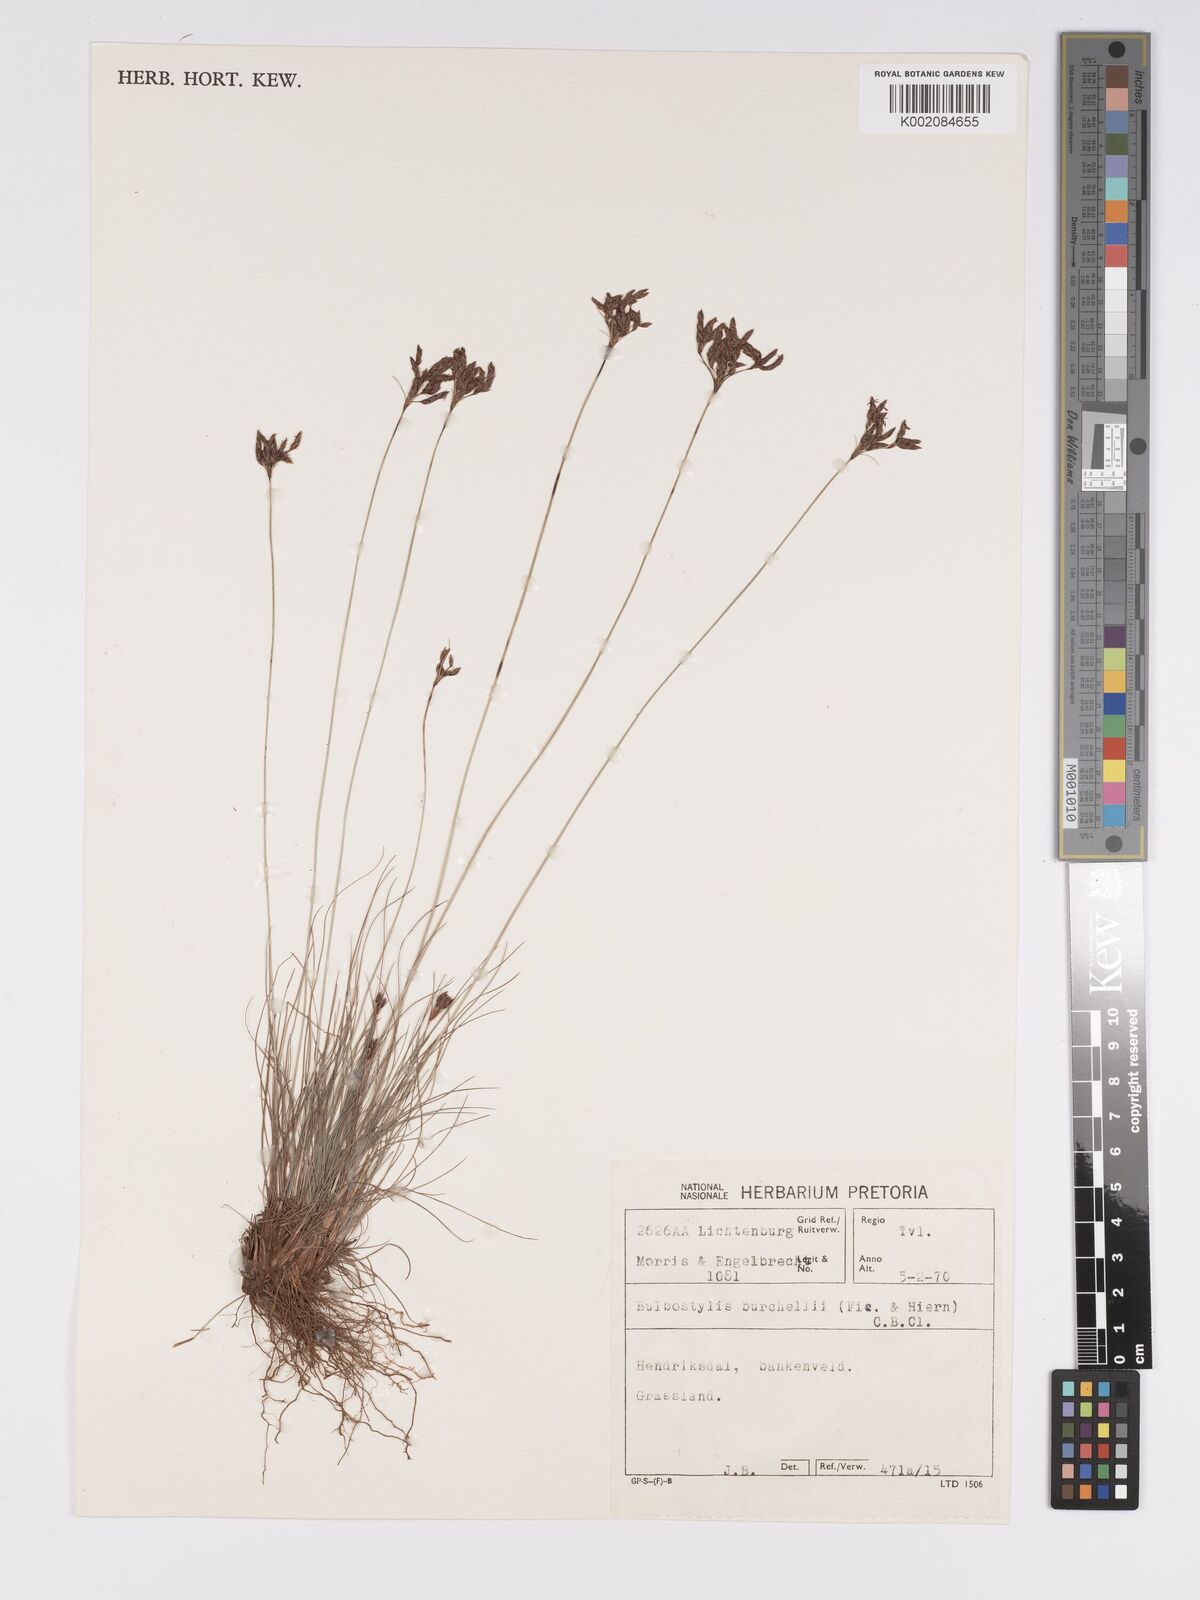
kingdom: Plantae
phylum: Tracheophyta
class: Liliopsida
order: Poales
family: Cyperaceae
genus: Bulbostylis
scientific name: Bulbostylis burchellii
